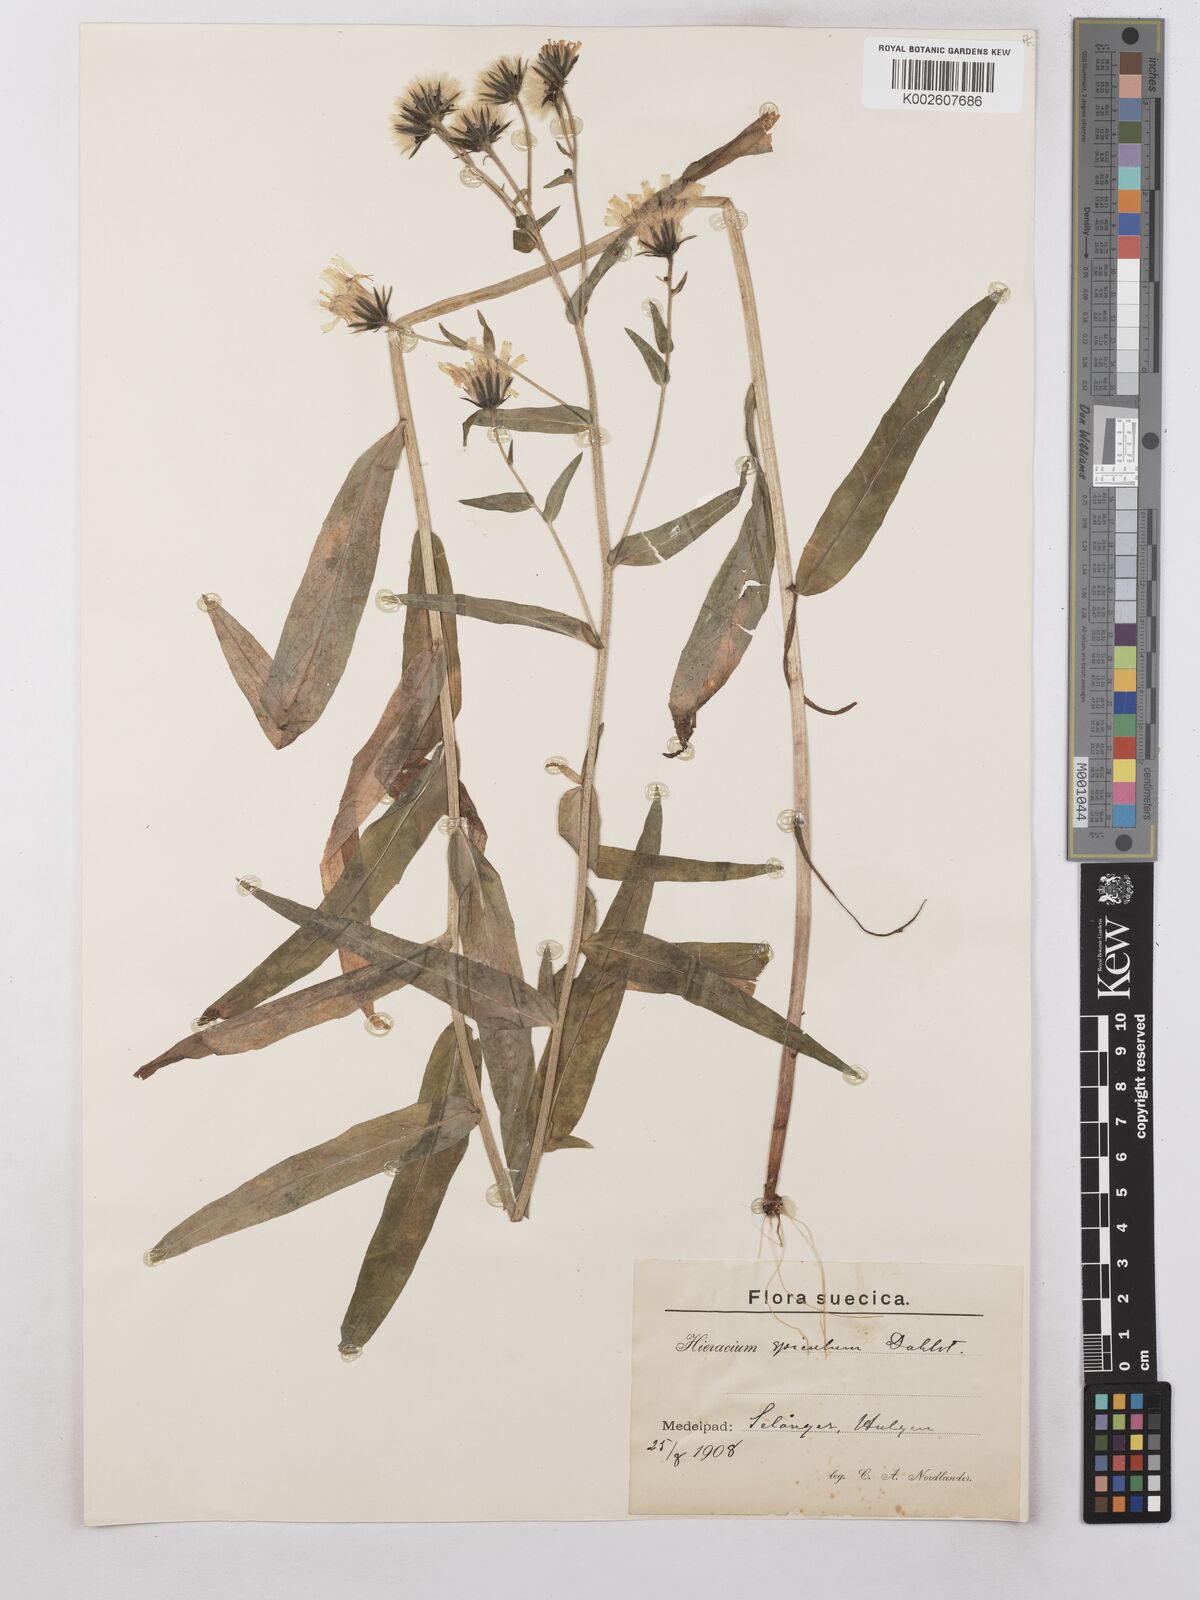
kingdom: Plantae
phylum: Tracheophyta
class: Magnoliopsida
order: Asterales
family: Asteraceae
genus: Hieracium
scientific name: Hieracium spiculum
